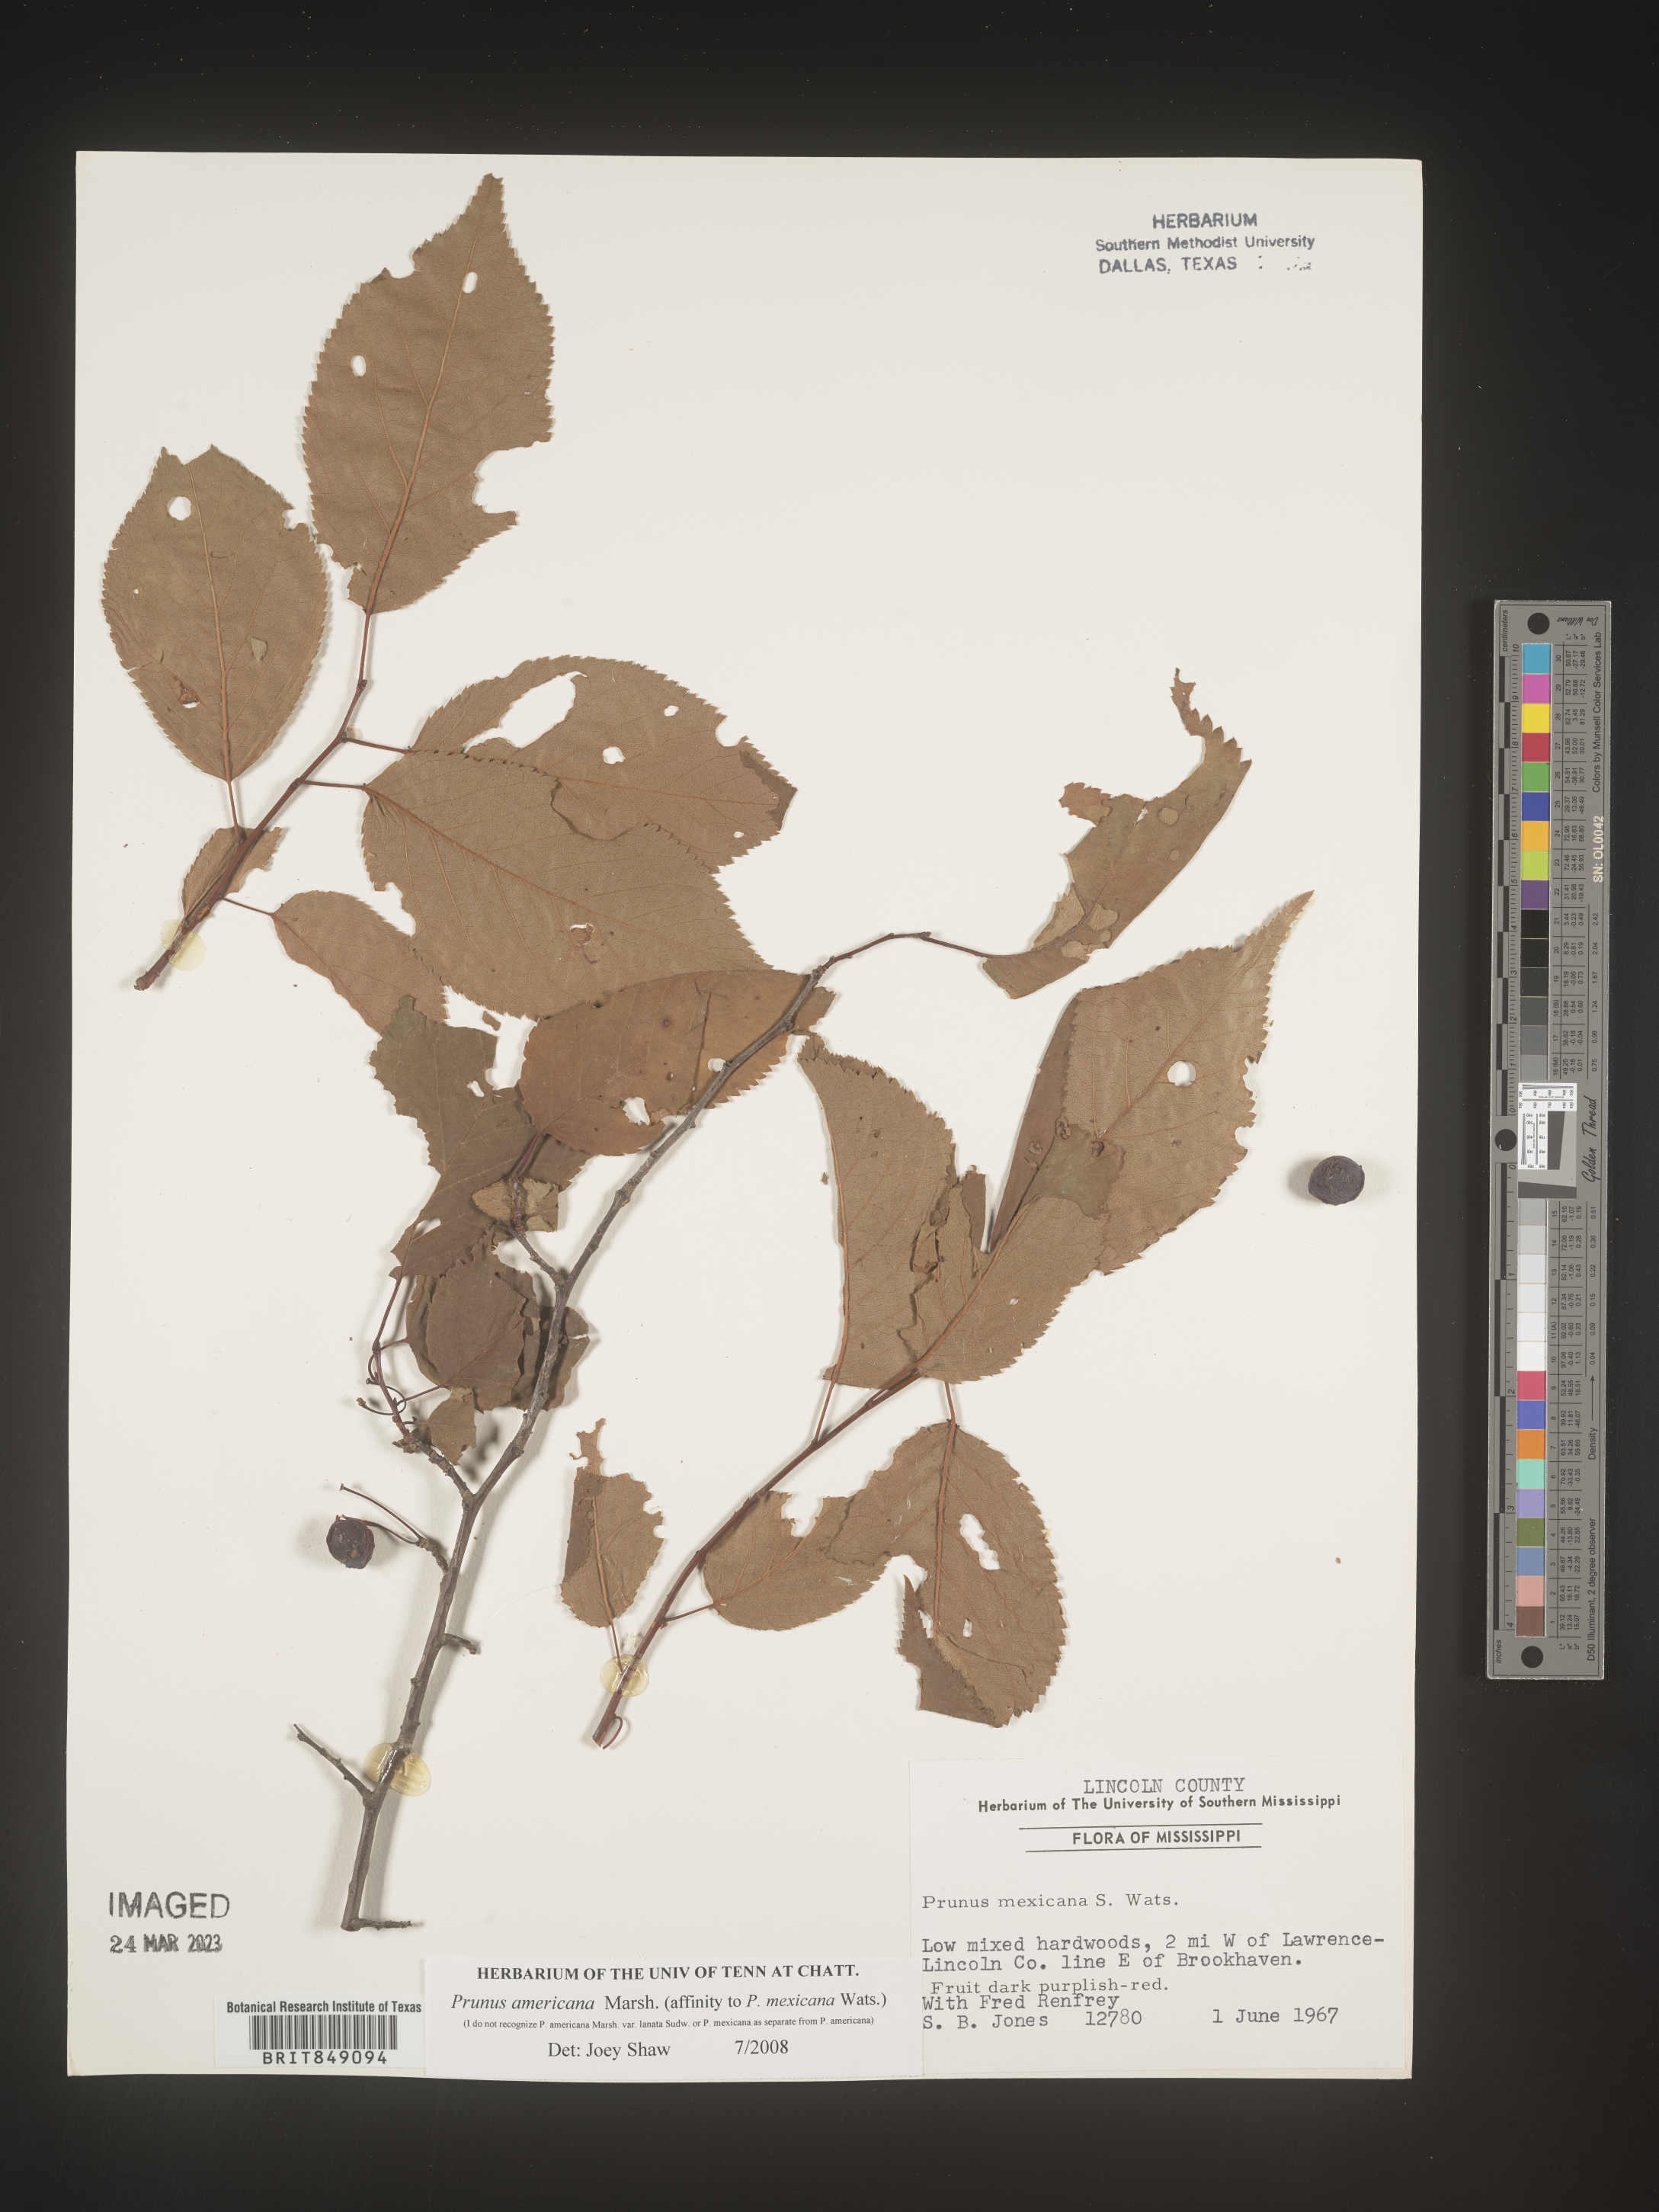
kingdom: Plantae
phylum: Tracheophyta
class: Magnoliopsida
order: Rosales
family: Rosaceae
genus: Prunus
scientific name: Prunus americana
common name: American plum
